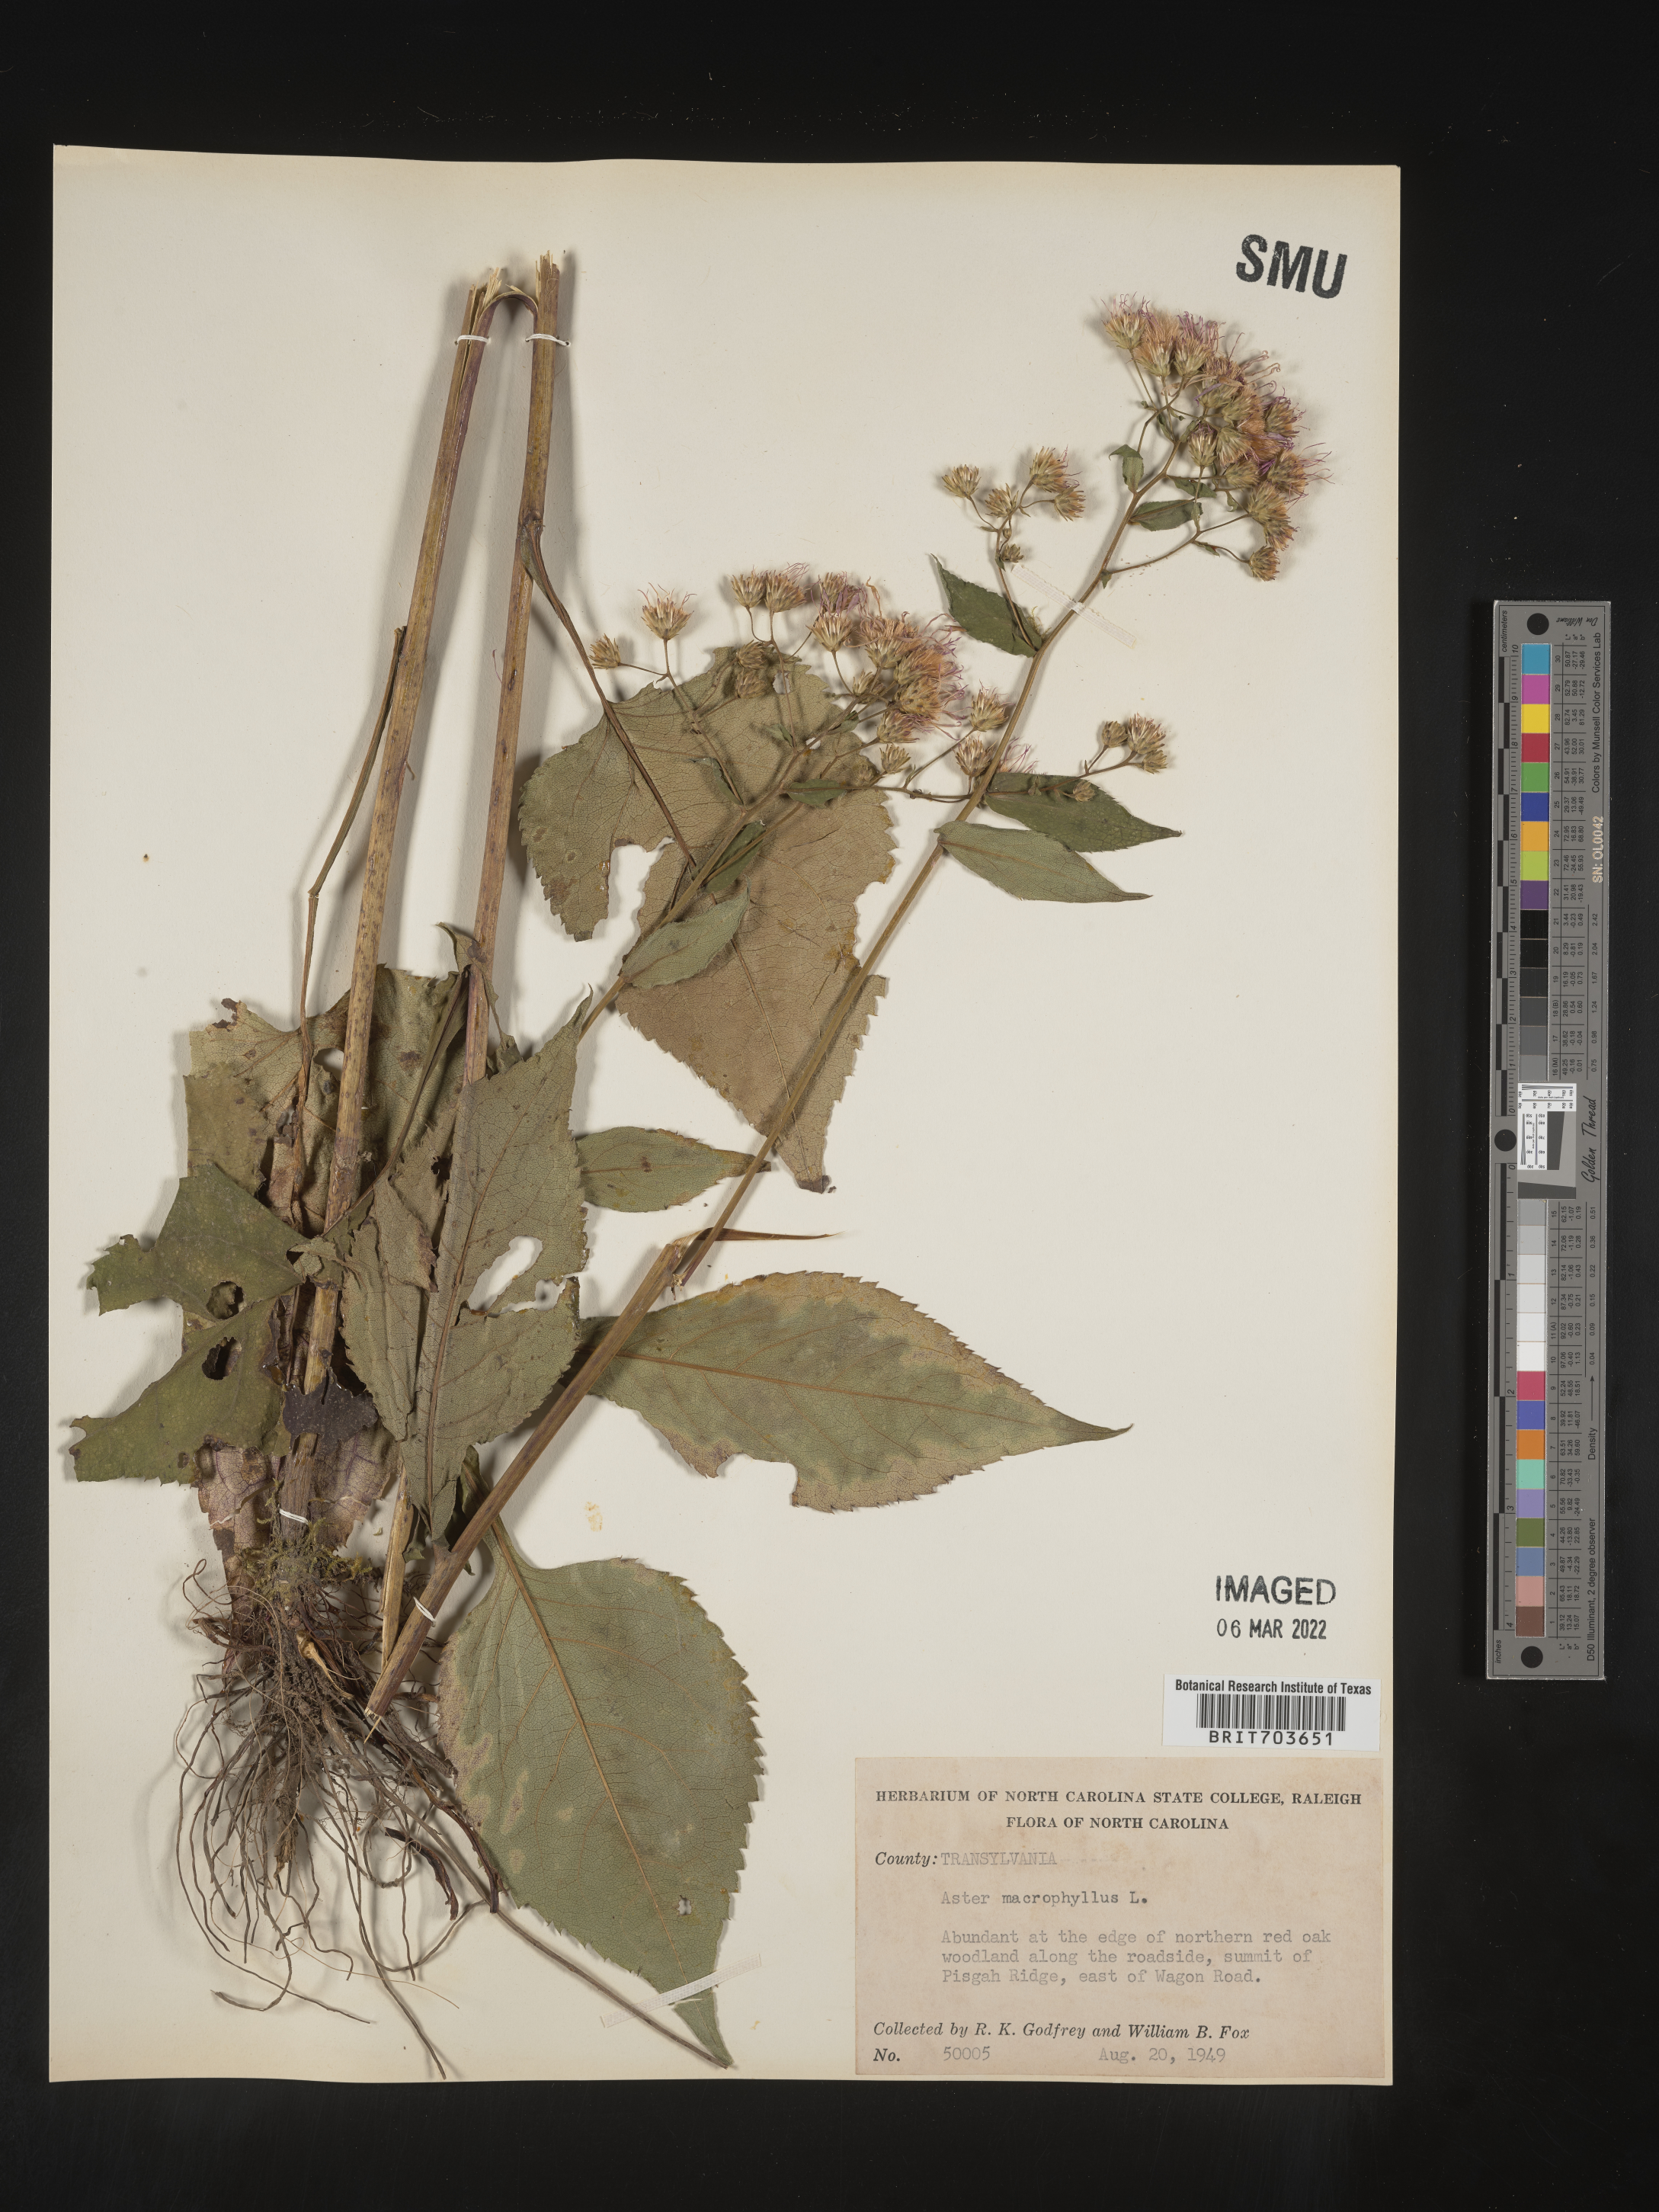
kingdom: Plantae
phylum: Tracheophyta
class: Magnoliopsida
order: Asterales
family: Asteraceae
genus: Eurybia
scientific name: Eurybia macrophylla
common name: Big-leaved aster
